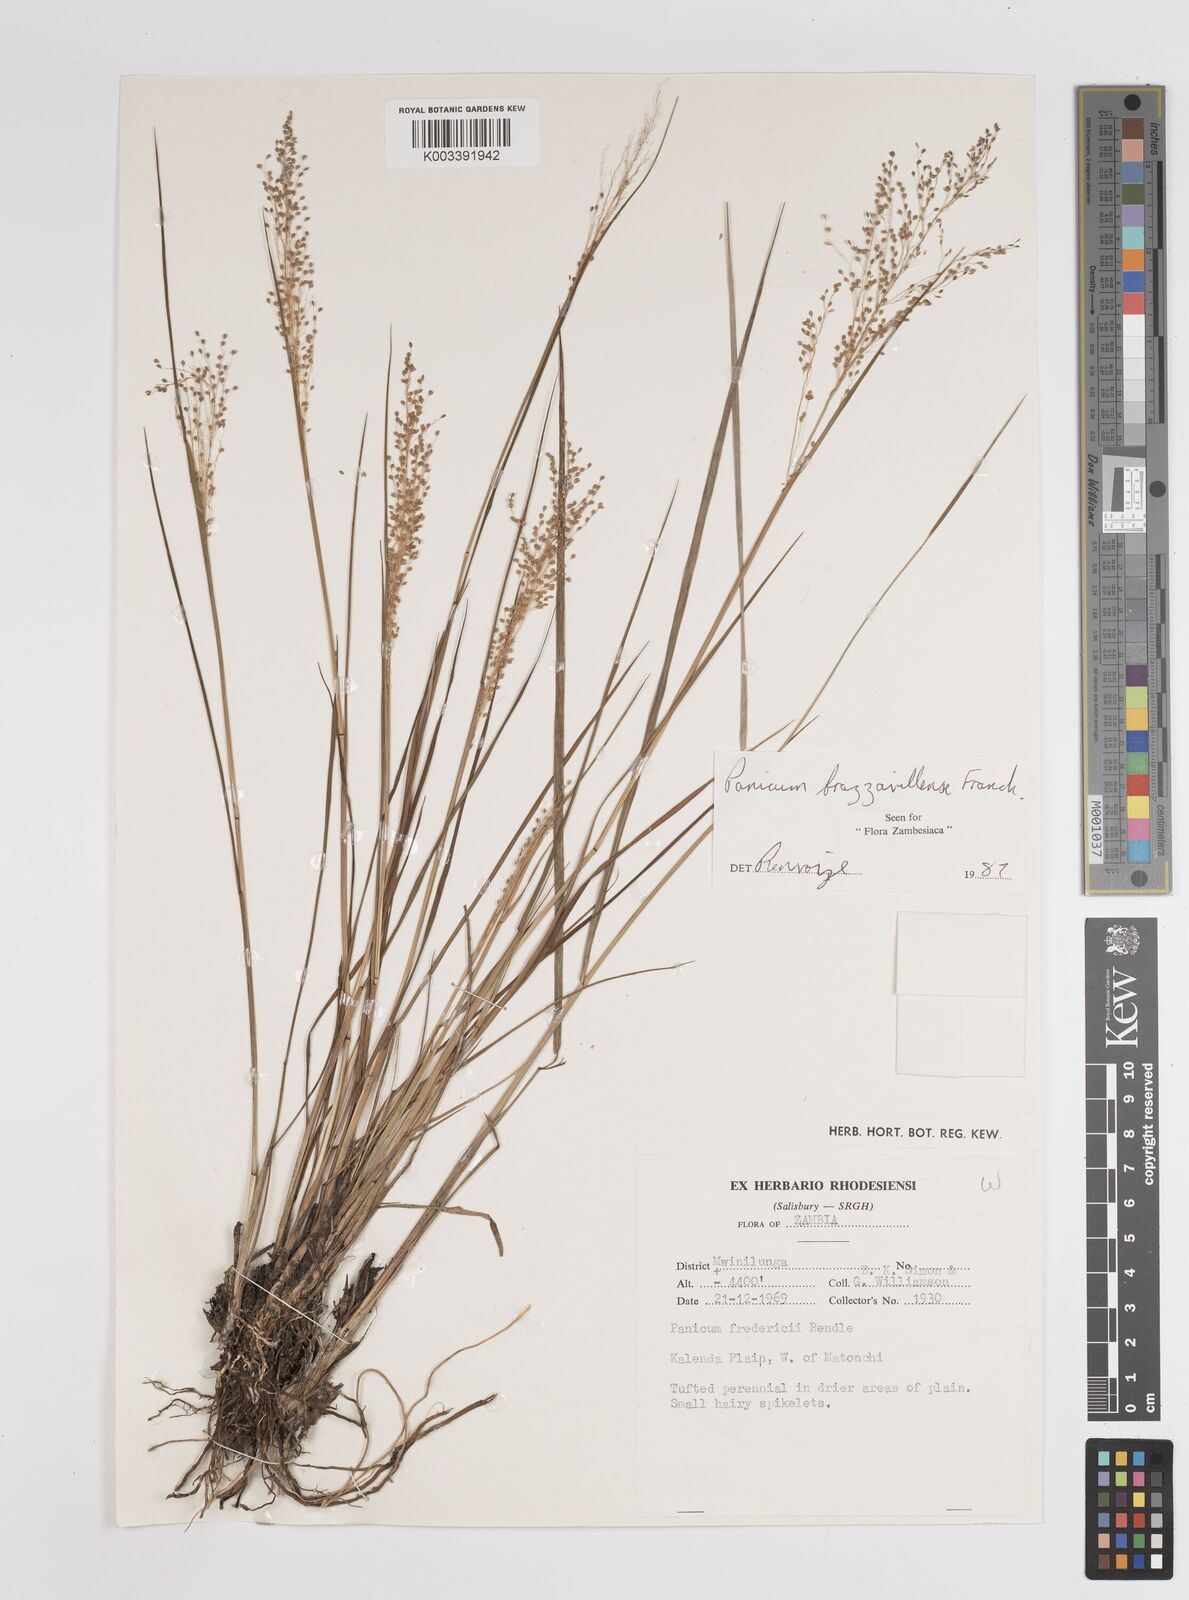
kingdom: Plantae
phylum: Tracheophyta
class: Liliopsida
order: Poales
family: Poaceae
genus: Trichanthecium
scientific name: Trichanthecium brazzavillense
